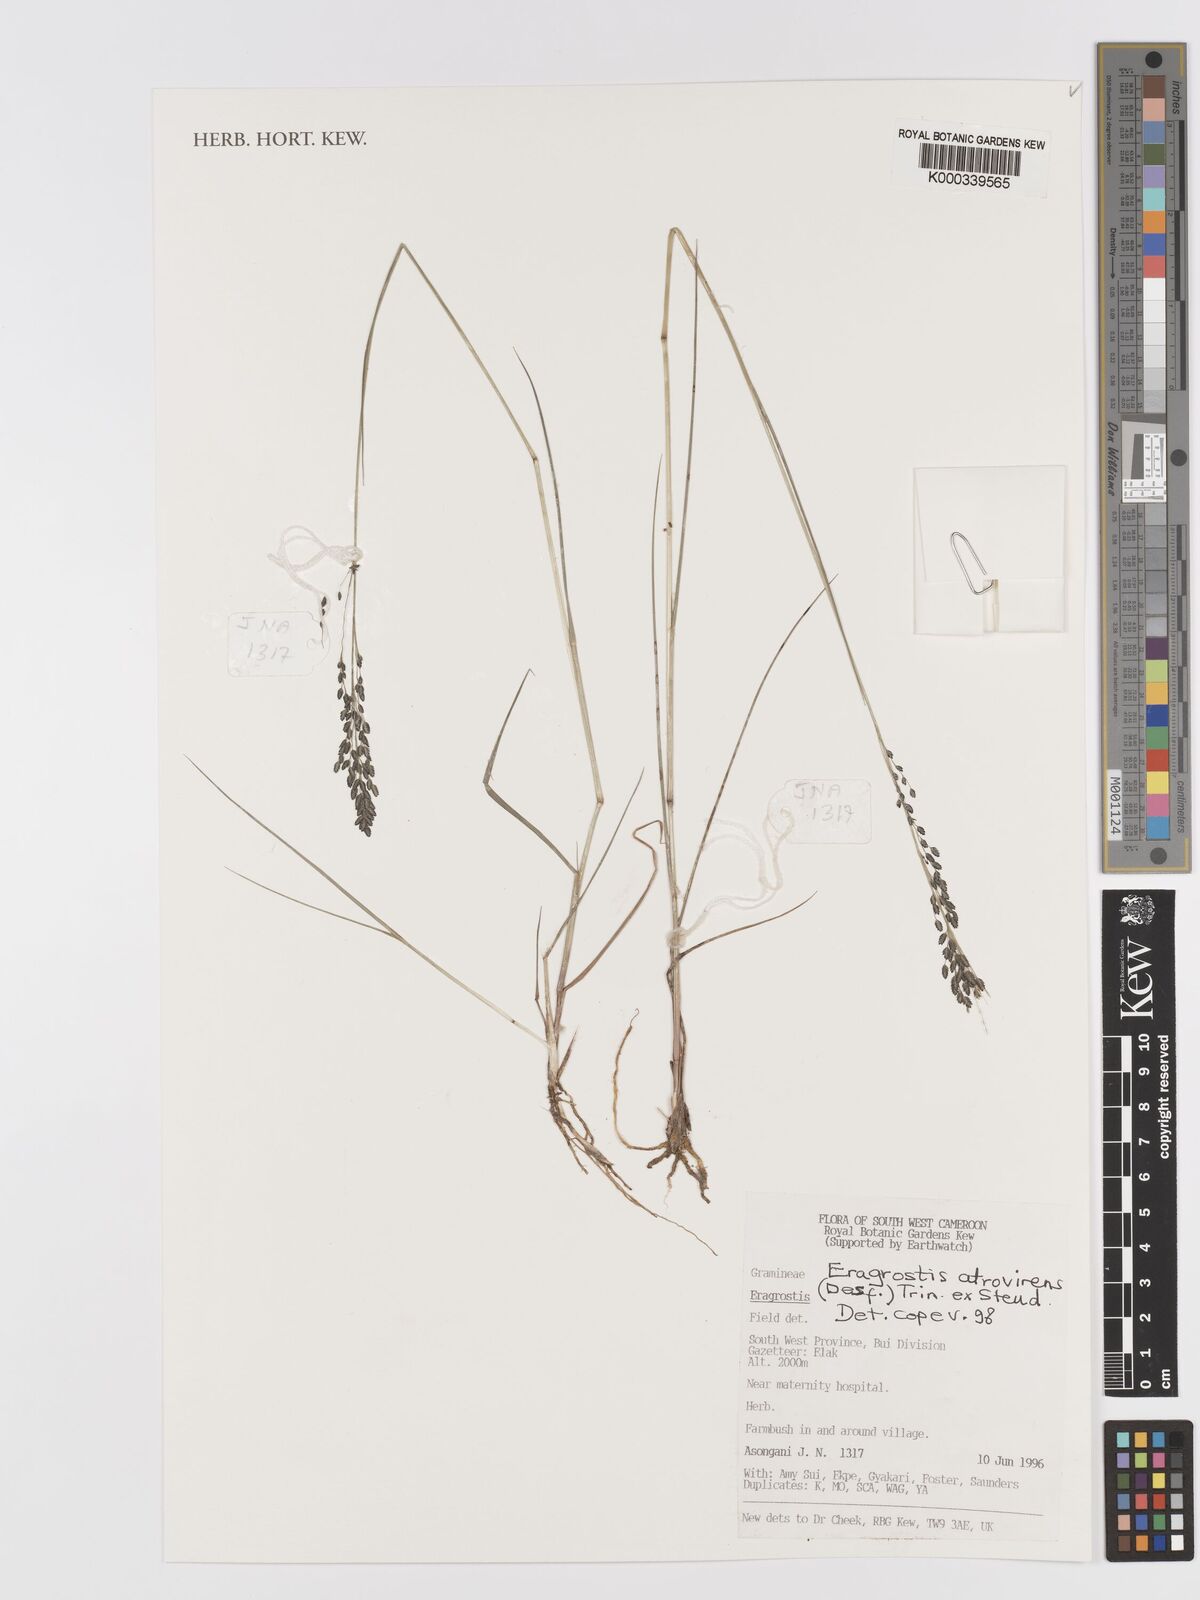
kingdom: Plantae
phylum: Tracheophyta
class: Liliopsida
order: Poales
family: Poaceae
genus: Eragrostis
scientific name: Eragrostis atrovirens
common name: Thalia lovegrass
